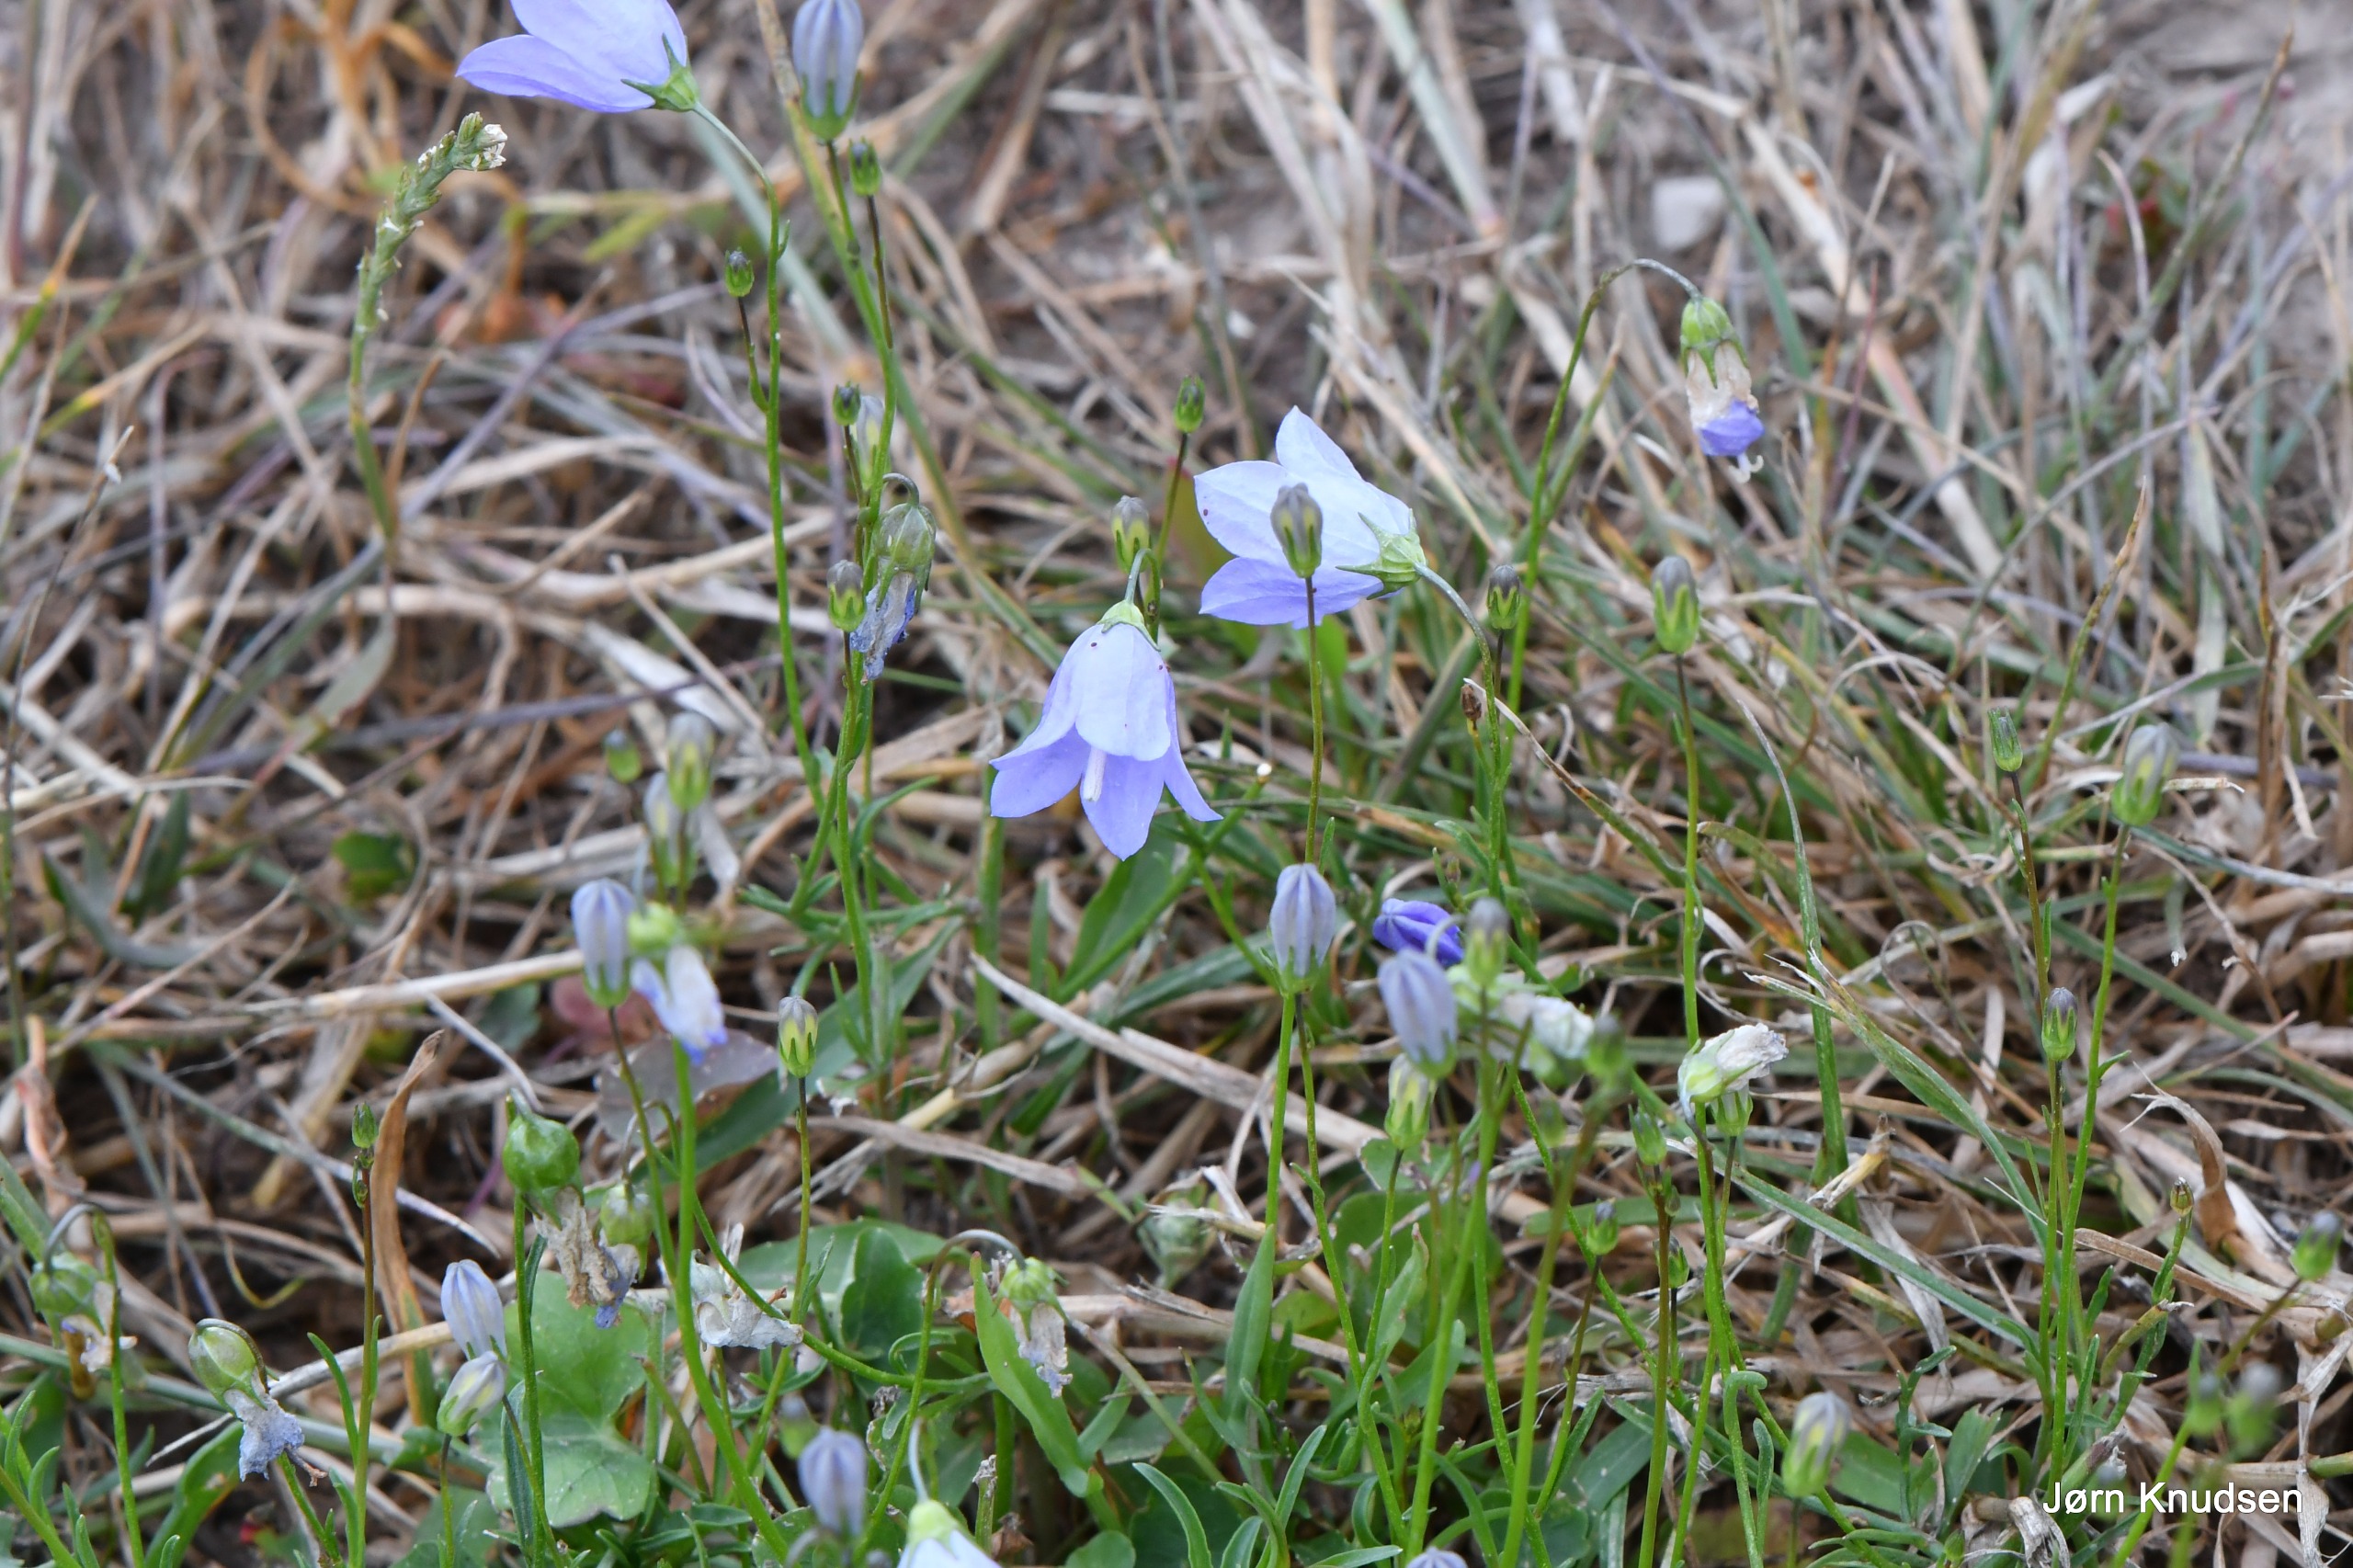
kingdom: Plantae
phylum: Tracheophyta
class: Magnoliopsida
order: Asterales
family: Campanulaceae
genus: Campanula
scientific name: Campanula rotundifolia
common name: Liden klokke
